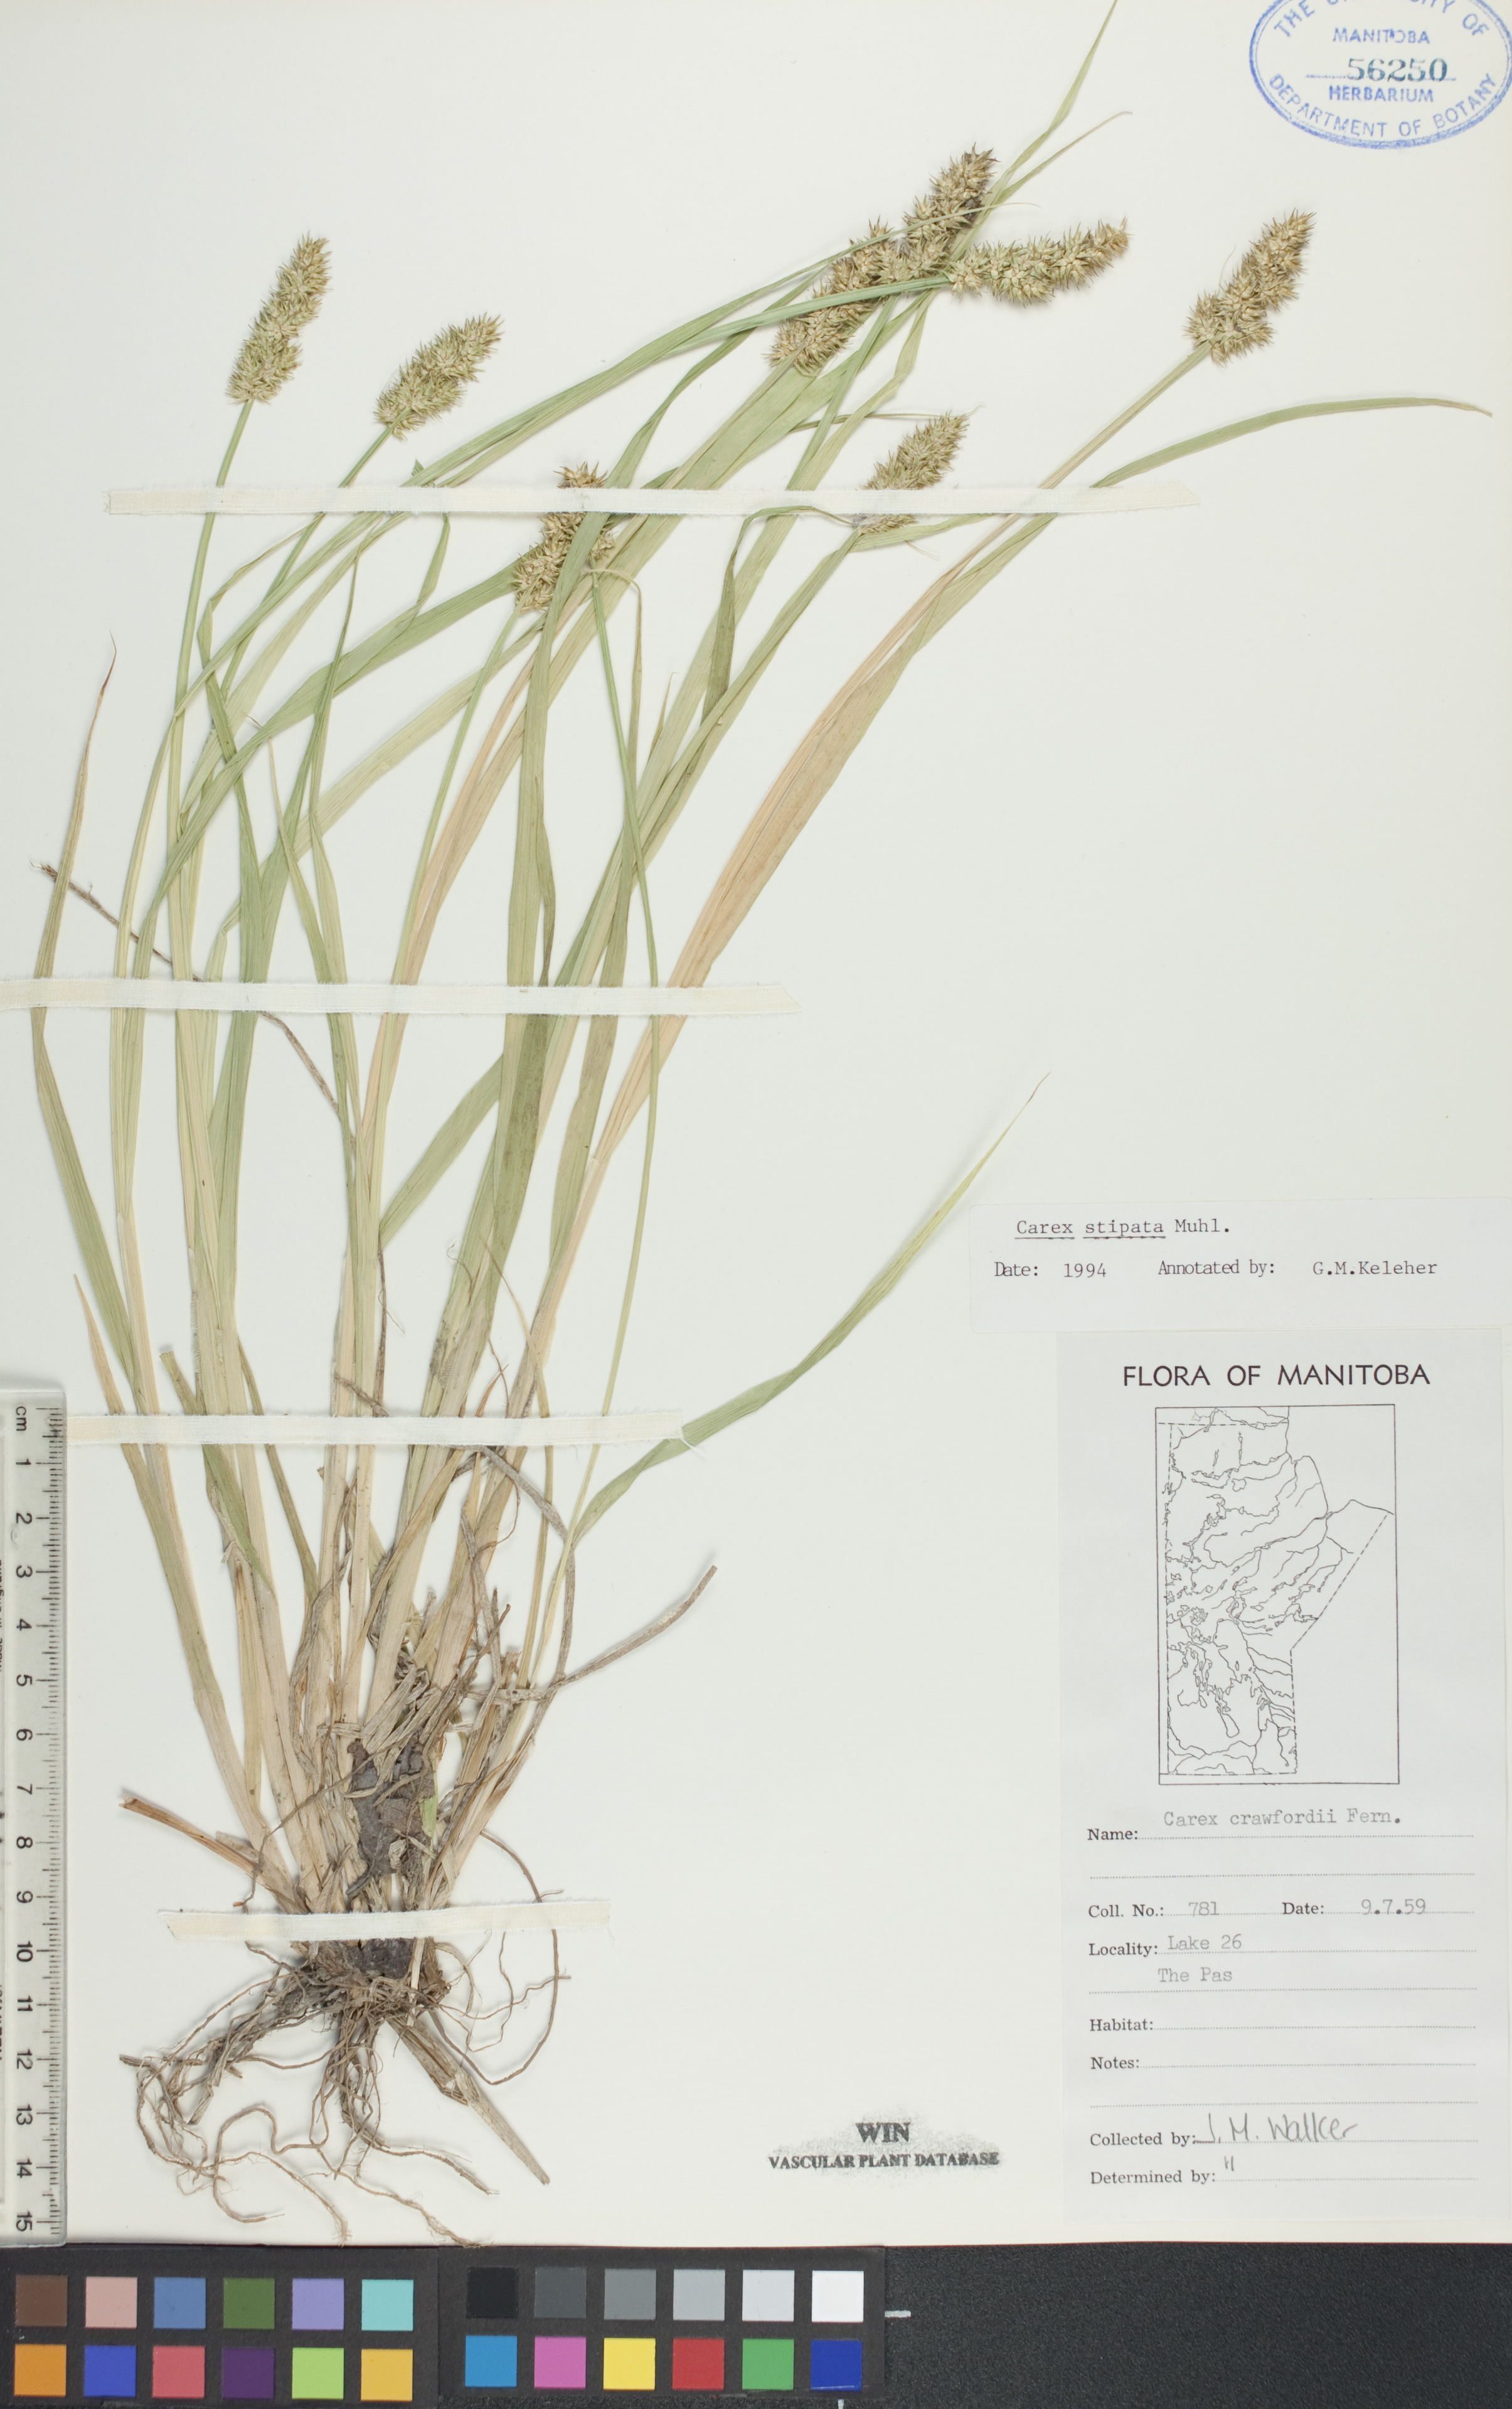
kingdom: Plantae
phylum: Tracheophyta
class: Liliopsida
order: Poales
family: Cyperaceae
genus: Carex
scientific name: Carex stipata
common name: Awl-fruited sedge
